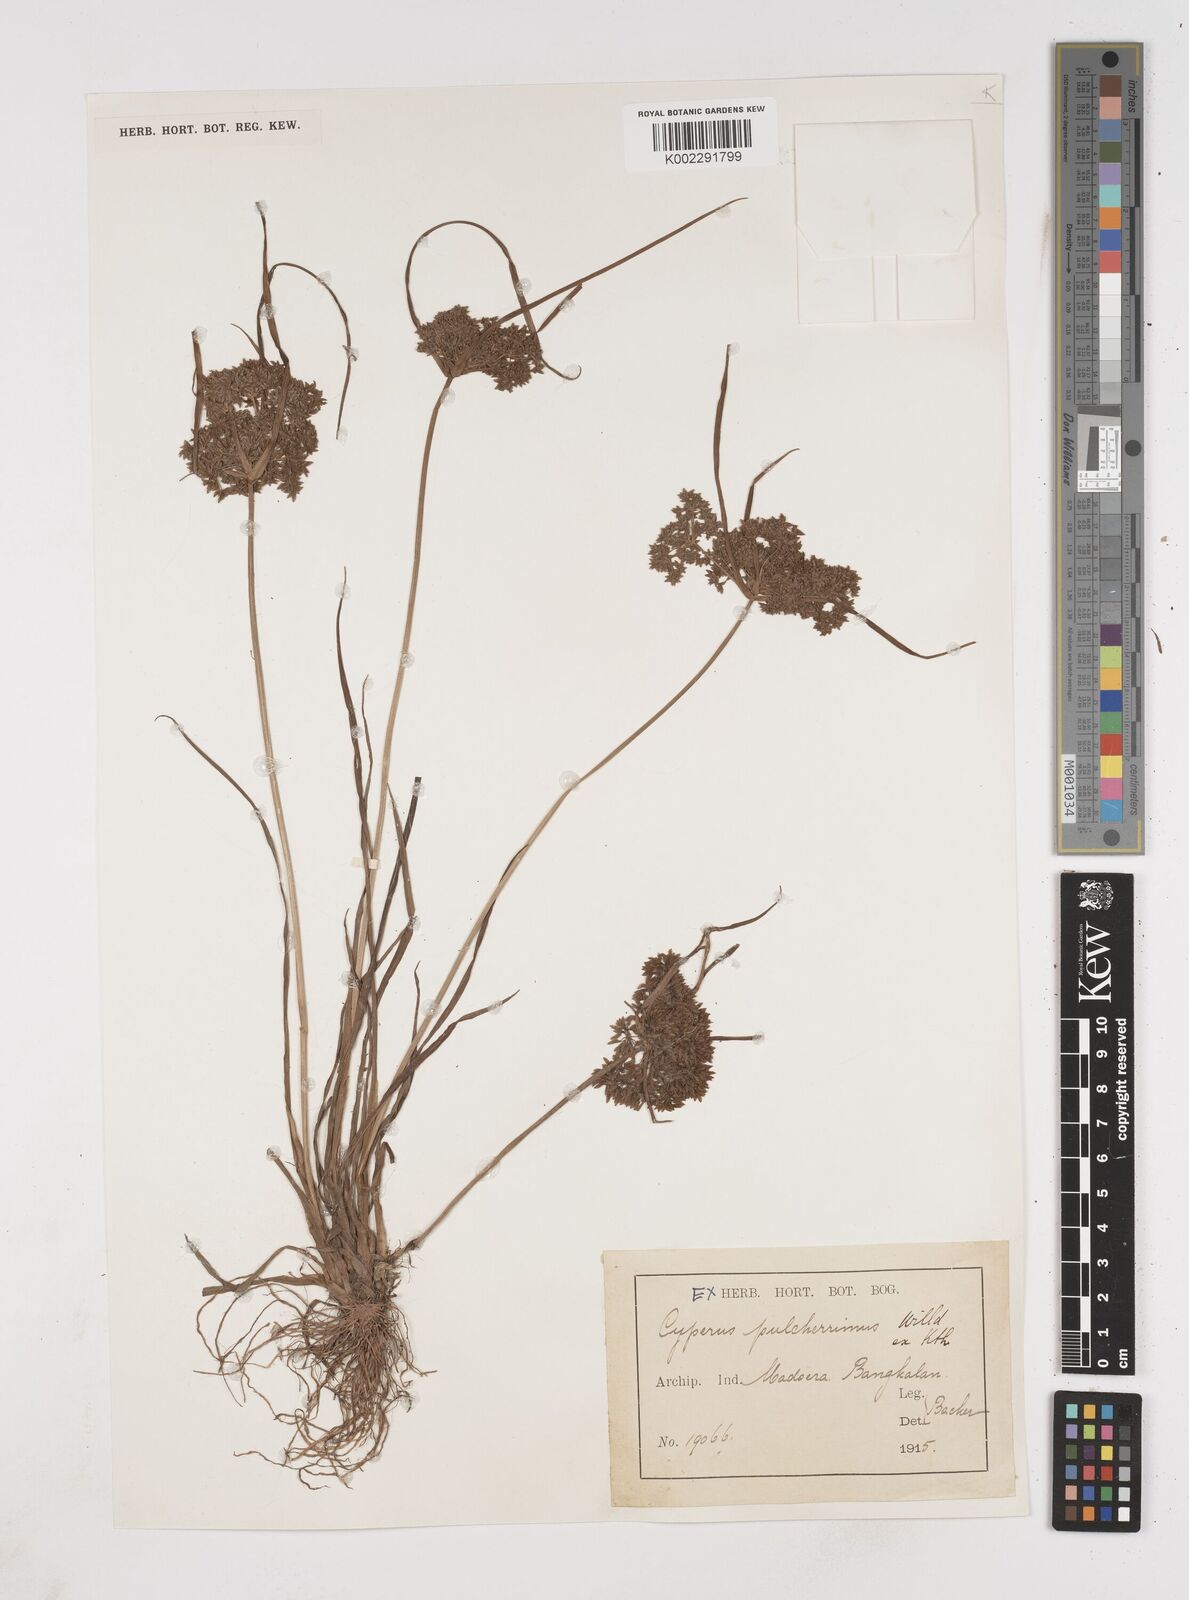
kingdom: Plantae
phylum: Tracheophyta
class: Liliopsida
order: Poales
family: Cyperaceae
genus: Cyperus
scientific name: Cyperus pulcherrimus
